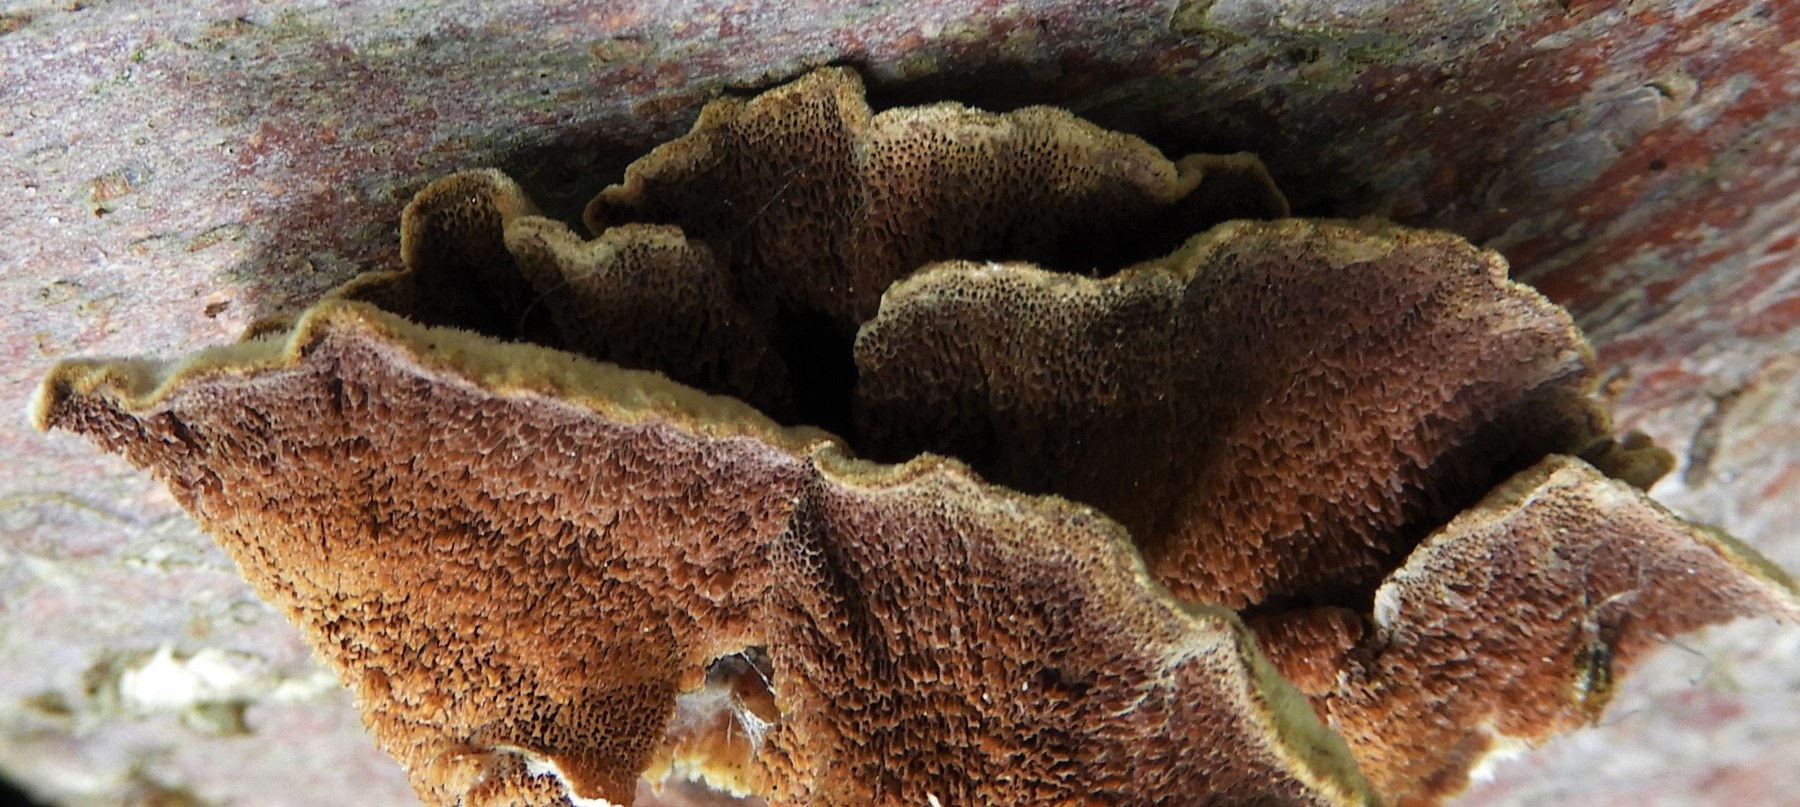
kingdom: Fungi
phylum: Basidiomycota
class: Agaricomycetes
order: Hymenochaetales
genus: Trichaptum
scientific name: Trichaptum abietinum
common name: almindelig violporesvamp
